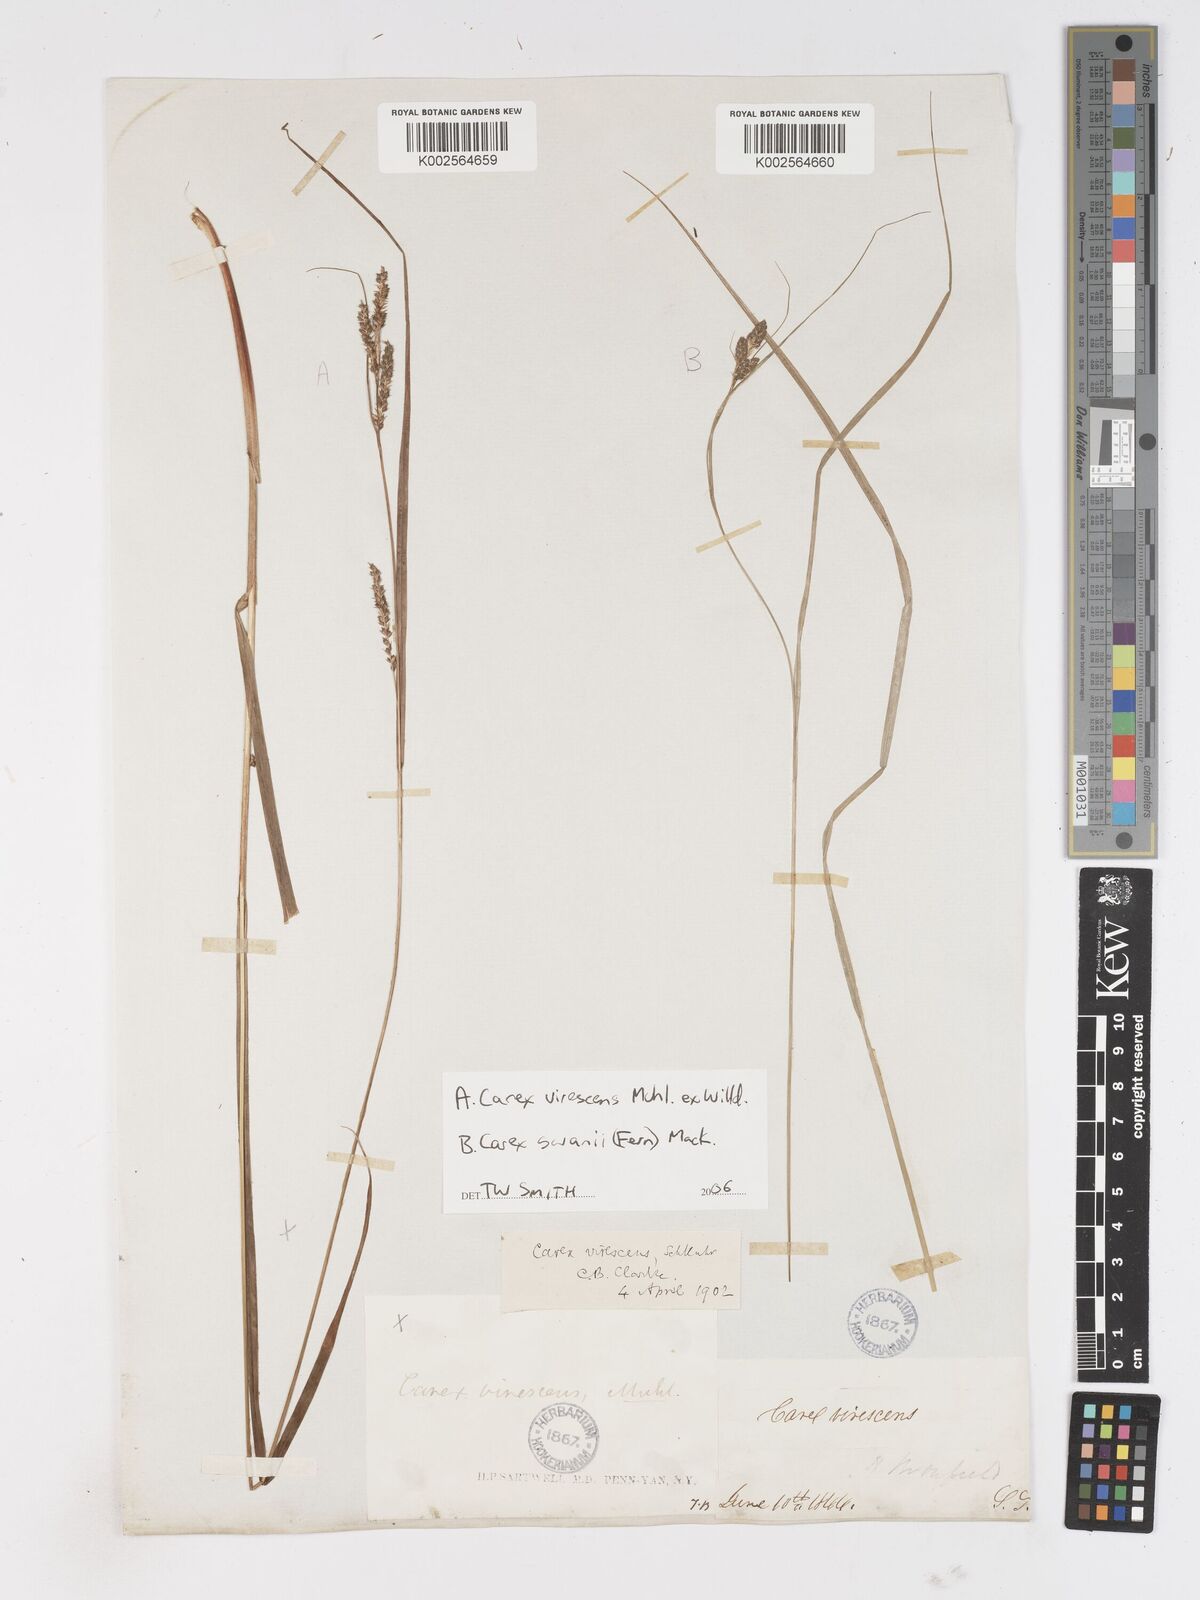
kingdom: Plantae
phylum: Tracheophyta
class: Liliopsida
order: Poales
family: Cyperaceae
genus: Carex
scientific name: Carex
